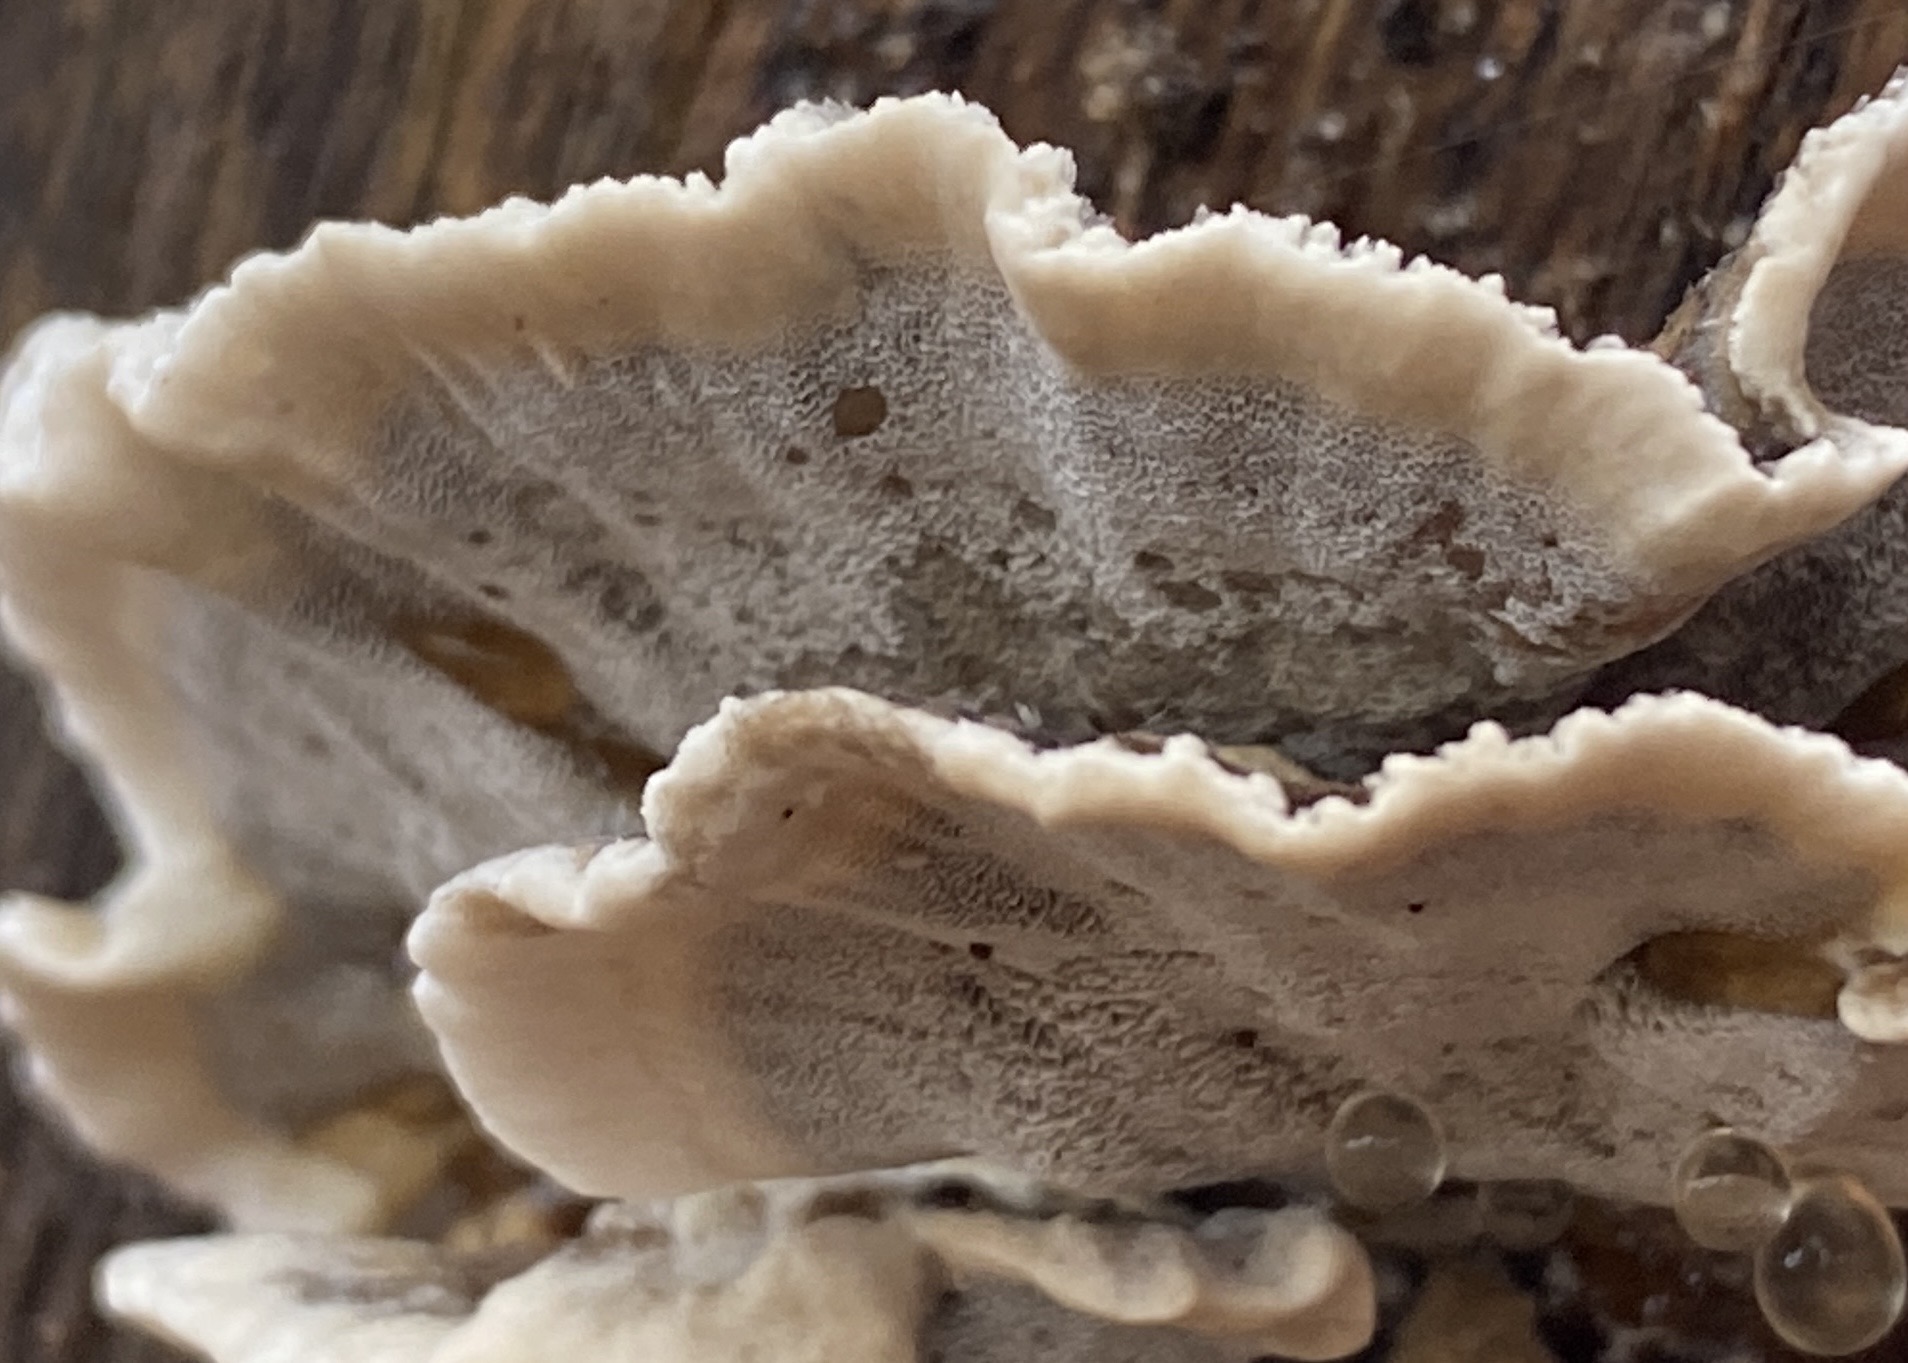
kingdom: Fungi
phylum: Basidiomycota
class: Agaricomycetes
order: Polyporales
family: Phanerochaetaceae
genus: Bjerkandera
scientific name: Bjerkandera adusta
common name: sveden sodporesvamp
